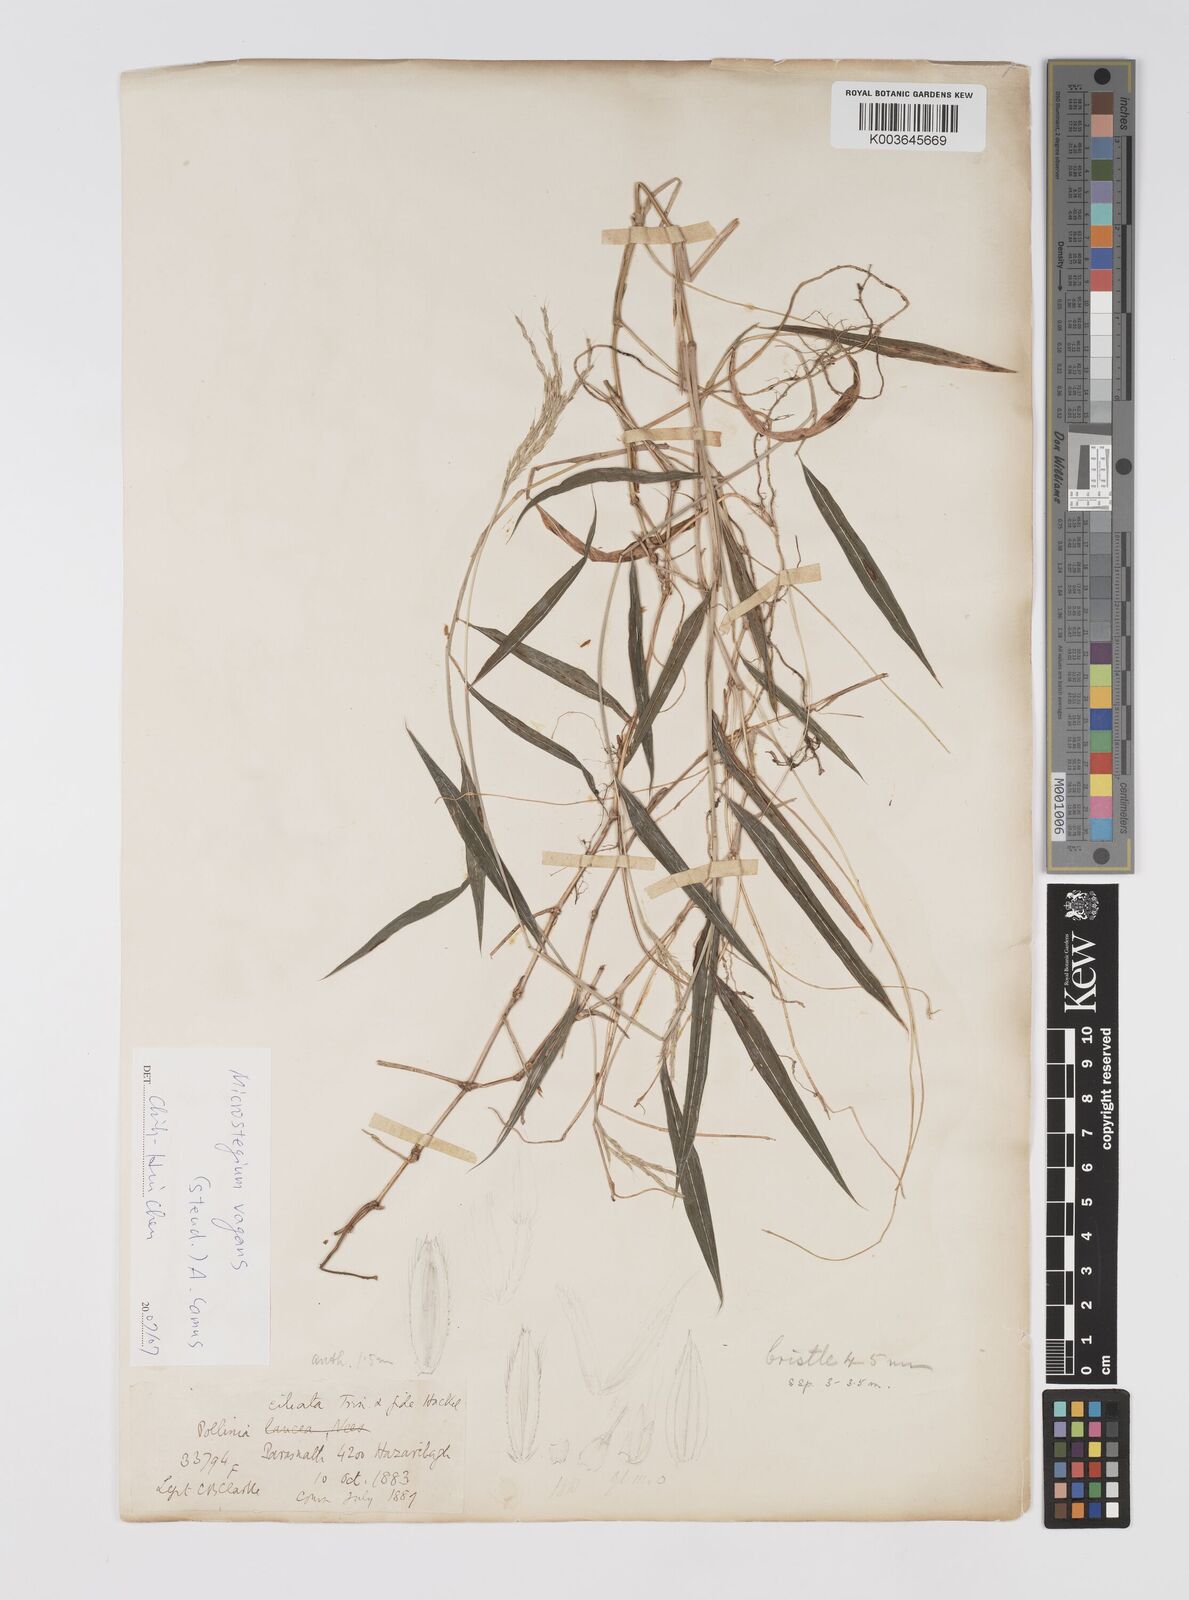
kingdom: Plantae
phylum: Tracheophyta
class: Liliopsida
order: Poales
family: Poaceae
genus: Microstegium
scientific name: Microstegium fasciculatum
